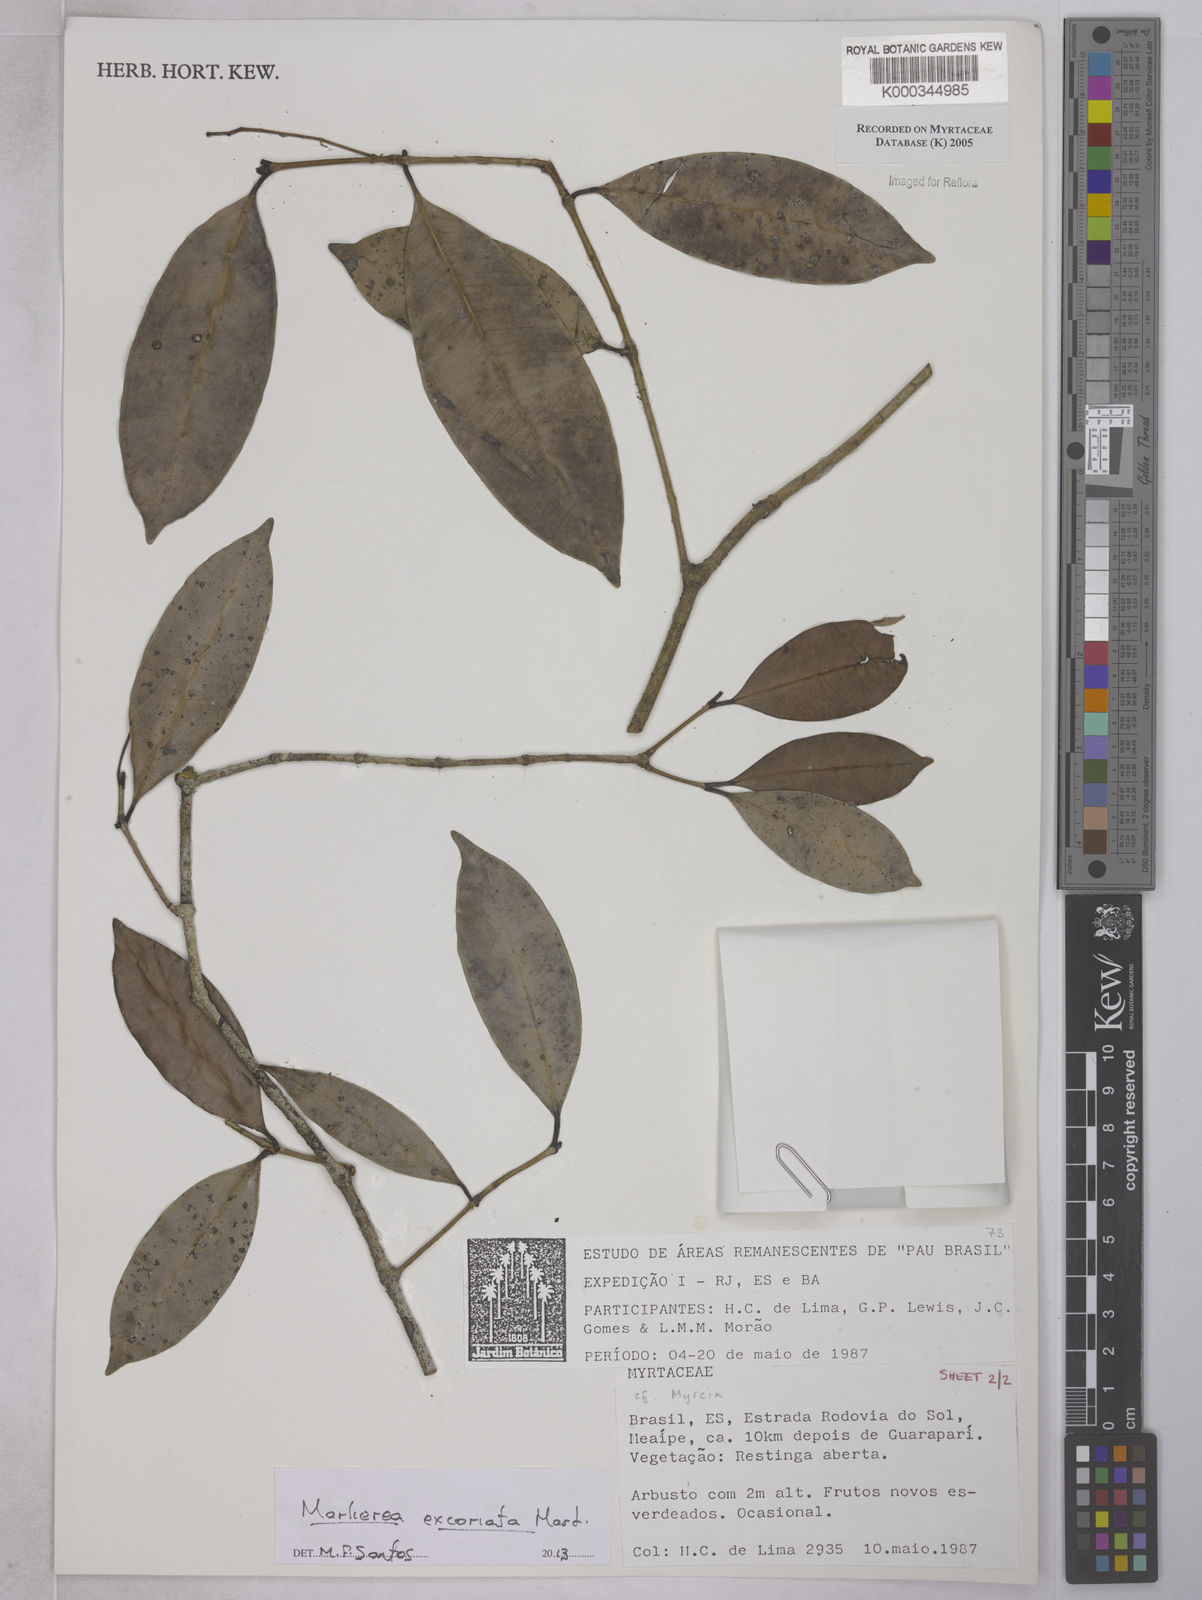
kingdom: Plantae
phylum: Tracheophyta
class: Magnoliopsida
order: Myrtales
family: Myrtaceae
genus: Myrcia
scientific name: Myrcia
